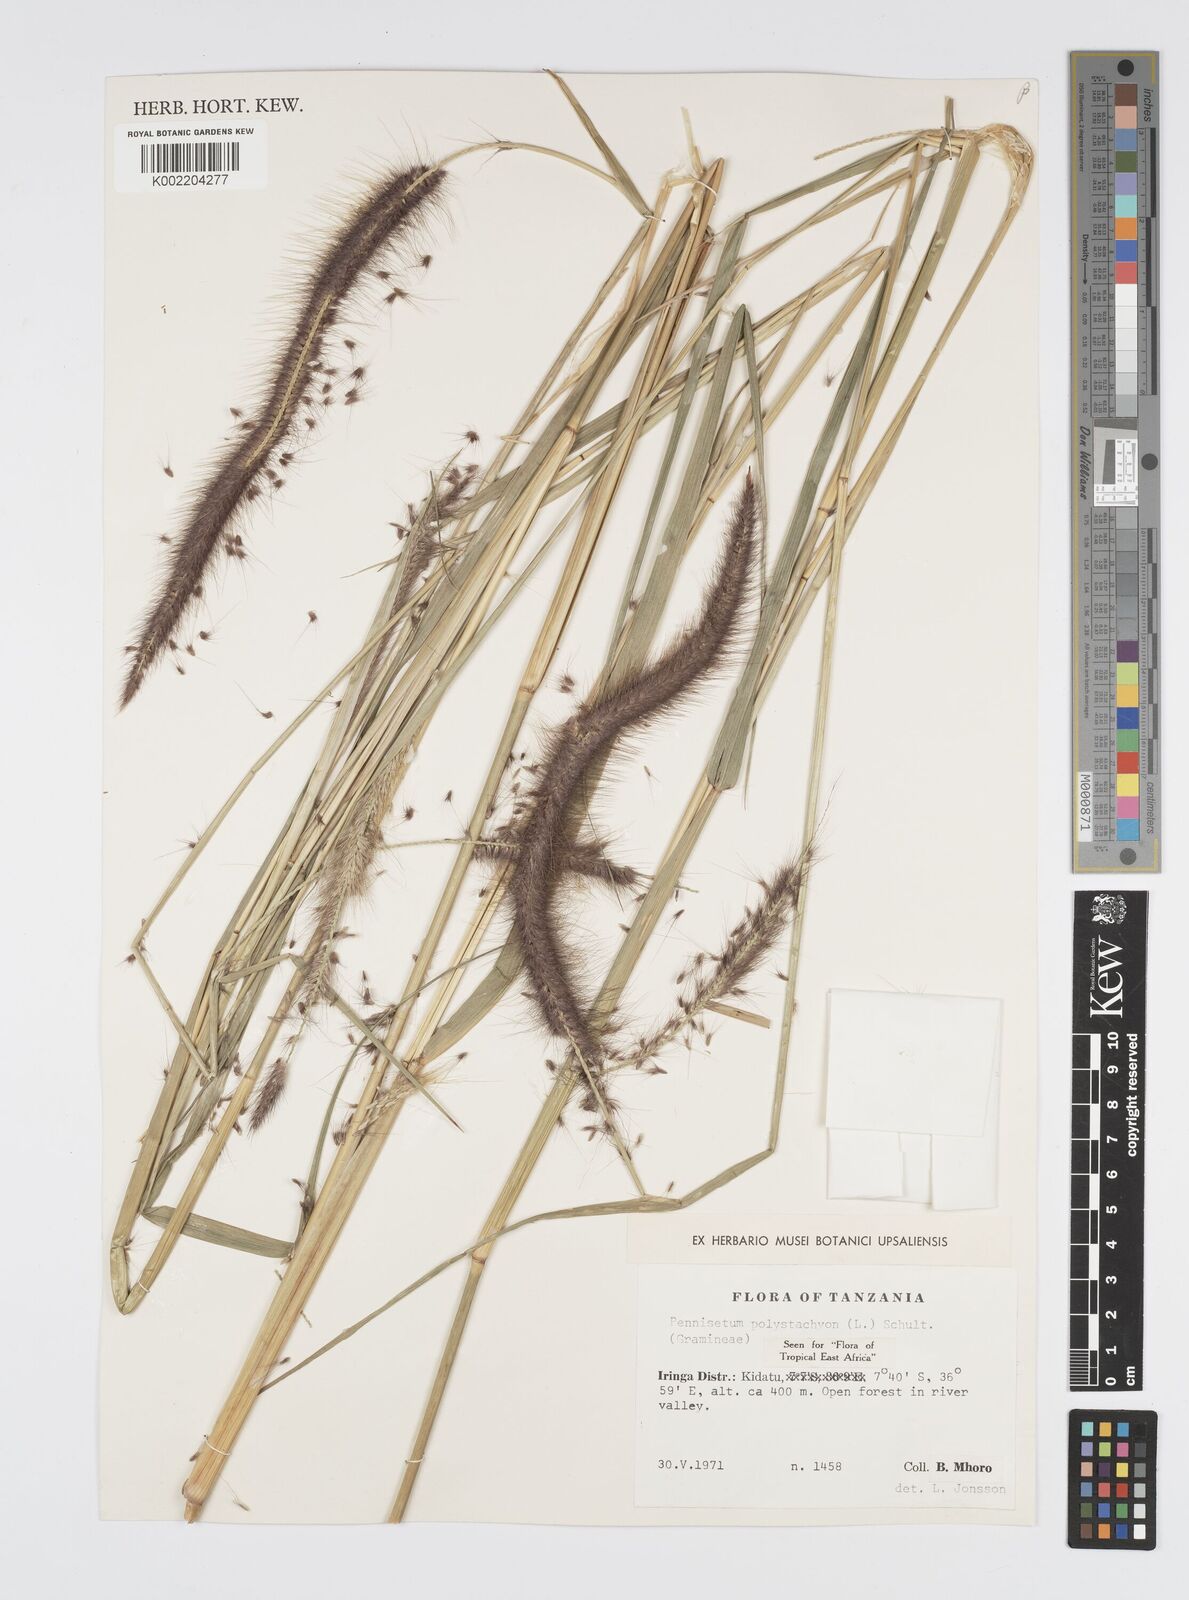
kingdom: Plantae
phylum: Tracheophyta
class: Liliopsida
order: Poales
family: Poaceae
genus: Setaria
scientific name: Setaria parviflora
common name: Knotroot bristle-grass
